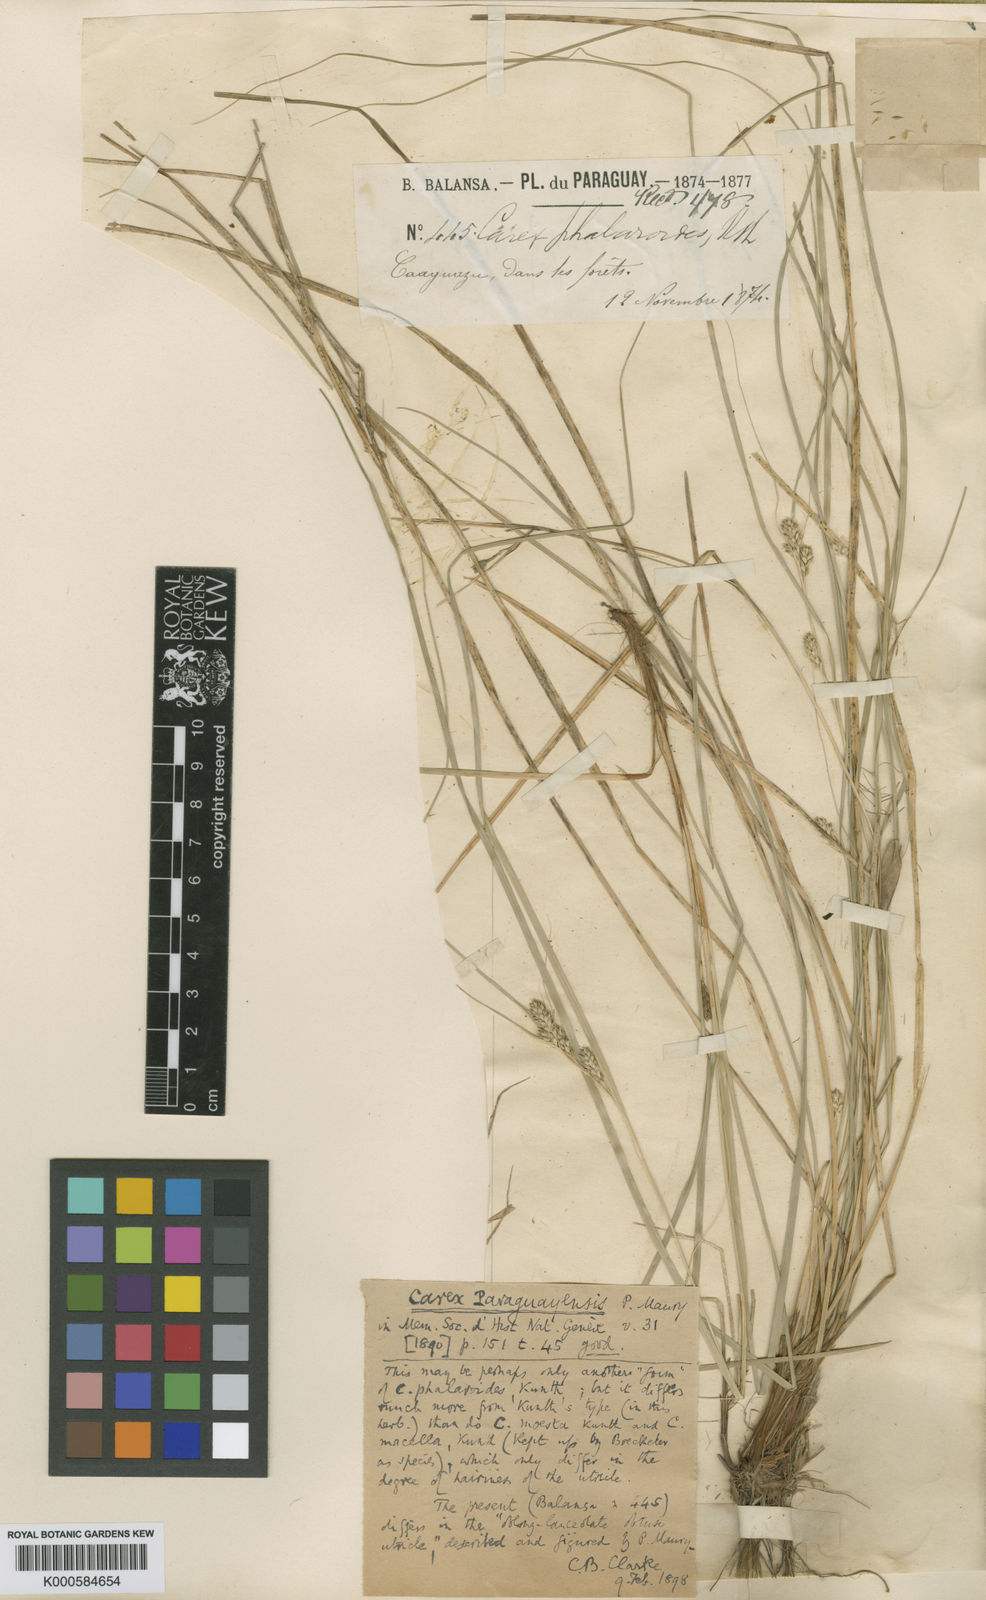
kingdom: Plantae
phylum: Tracheophyta
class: Liliopsida
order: Poales
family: Cyperaceae
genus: Carex
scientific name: Carex phalaroides
